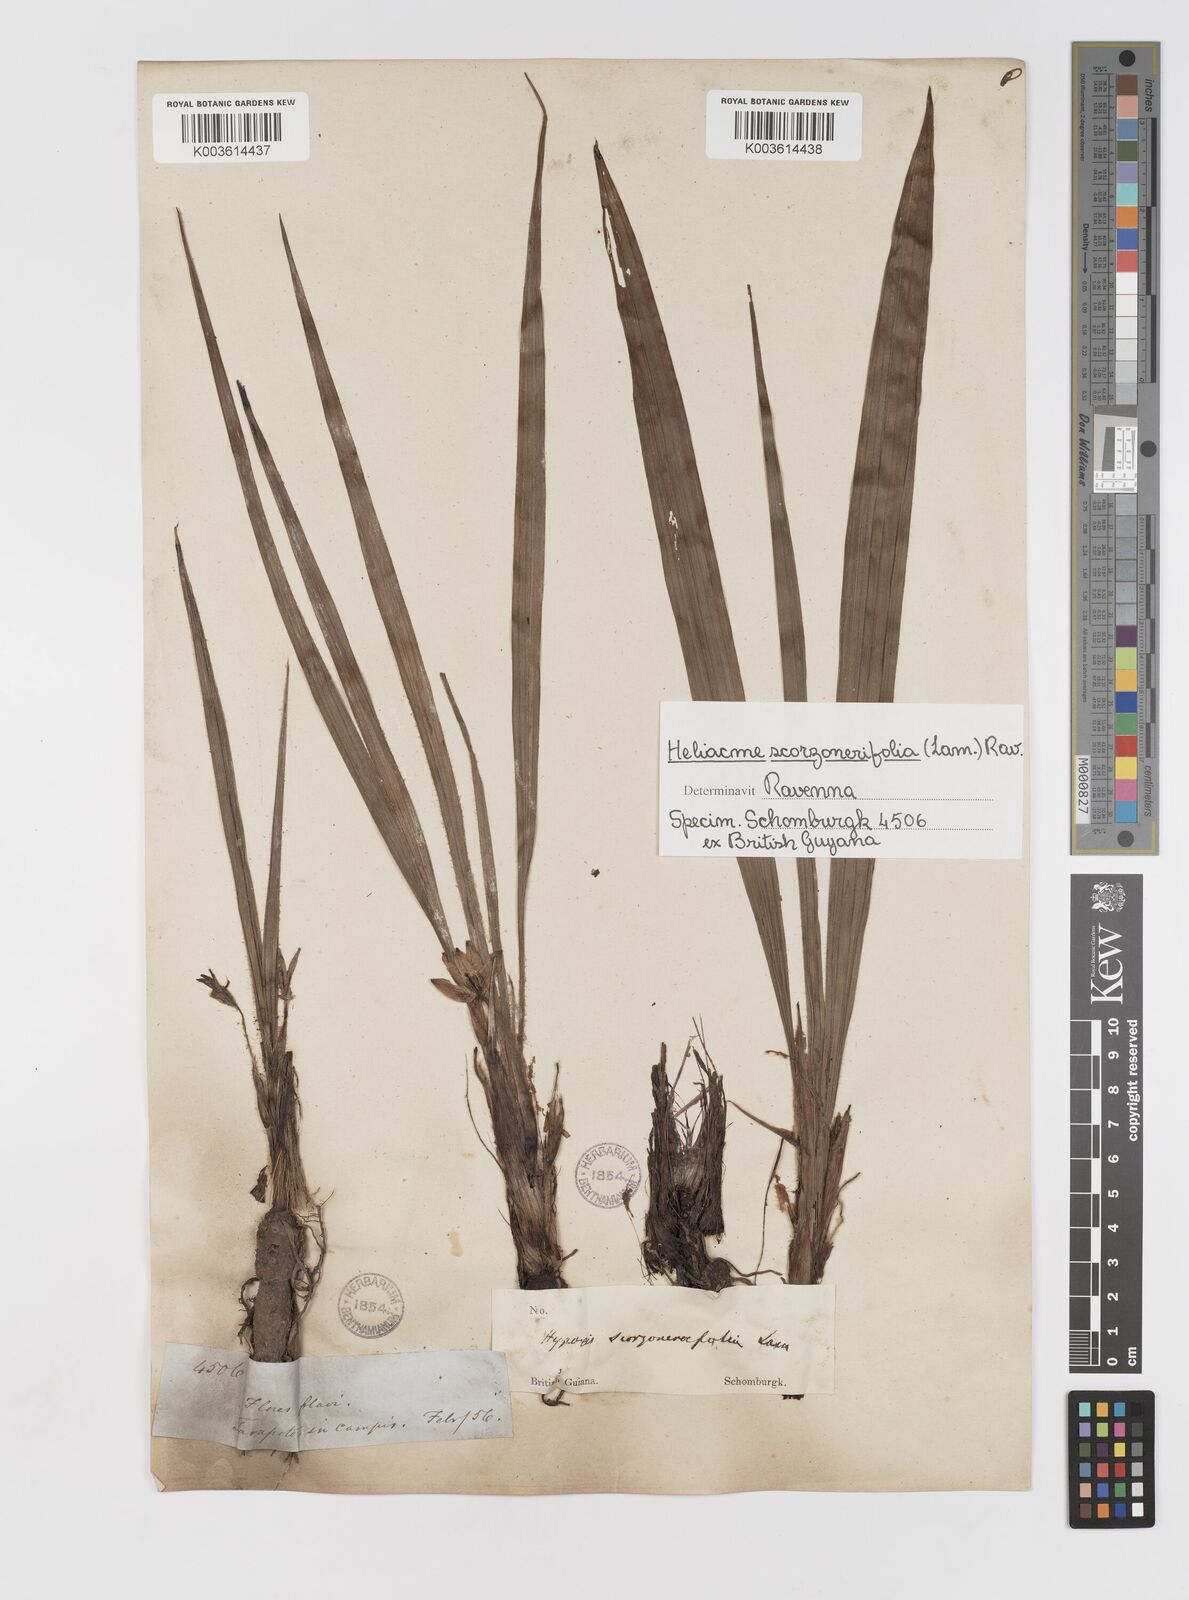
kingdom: Plantae
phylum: Tracheophyta
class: Liliopsida
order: Asparagales
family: Hypoxidaceae
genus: Curculigo
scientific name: Curculigo scorzonerifolia
